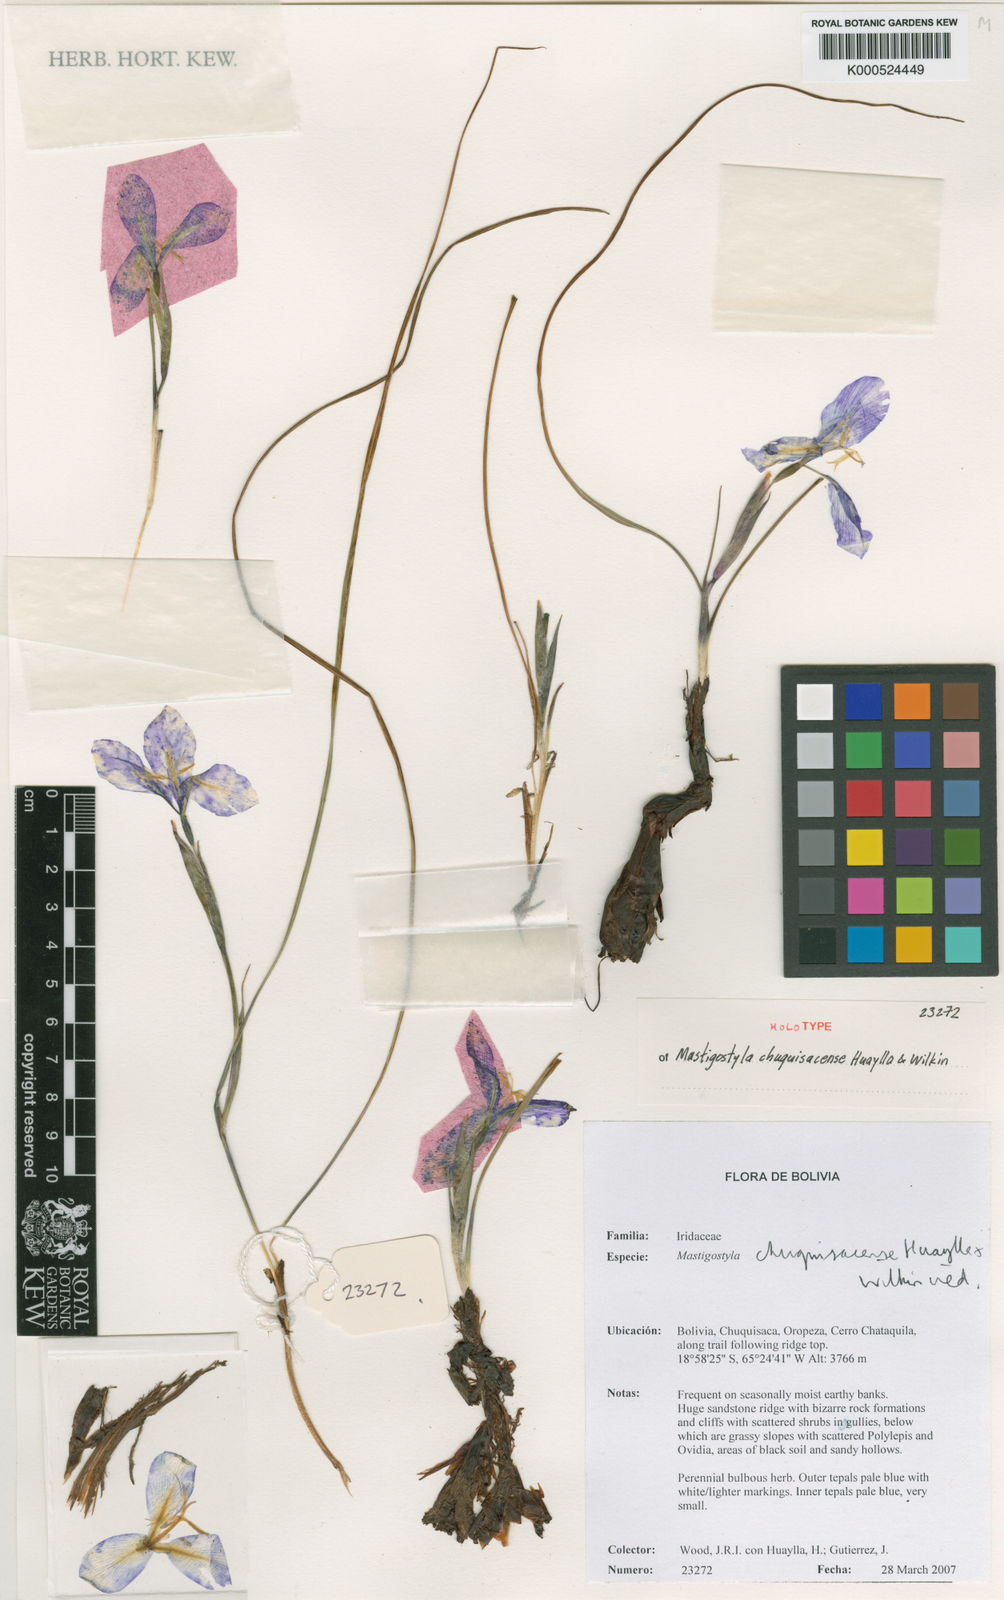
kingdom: Plantae
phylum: Tracheophyta
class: Liliopsida
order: Asparagales
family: Iridaceae
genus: Mastigostyla
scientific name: Mastigostyla
